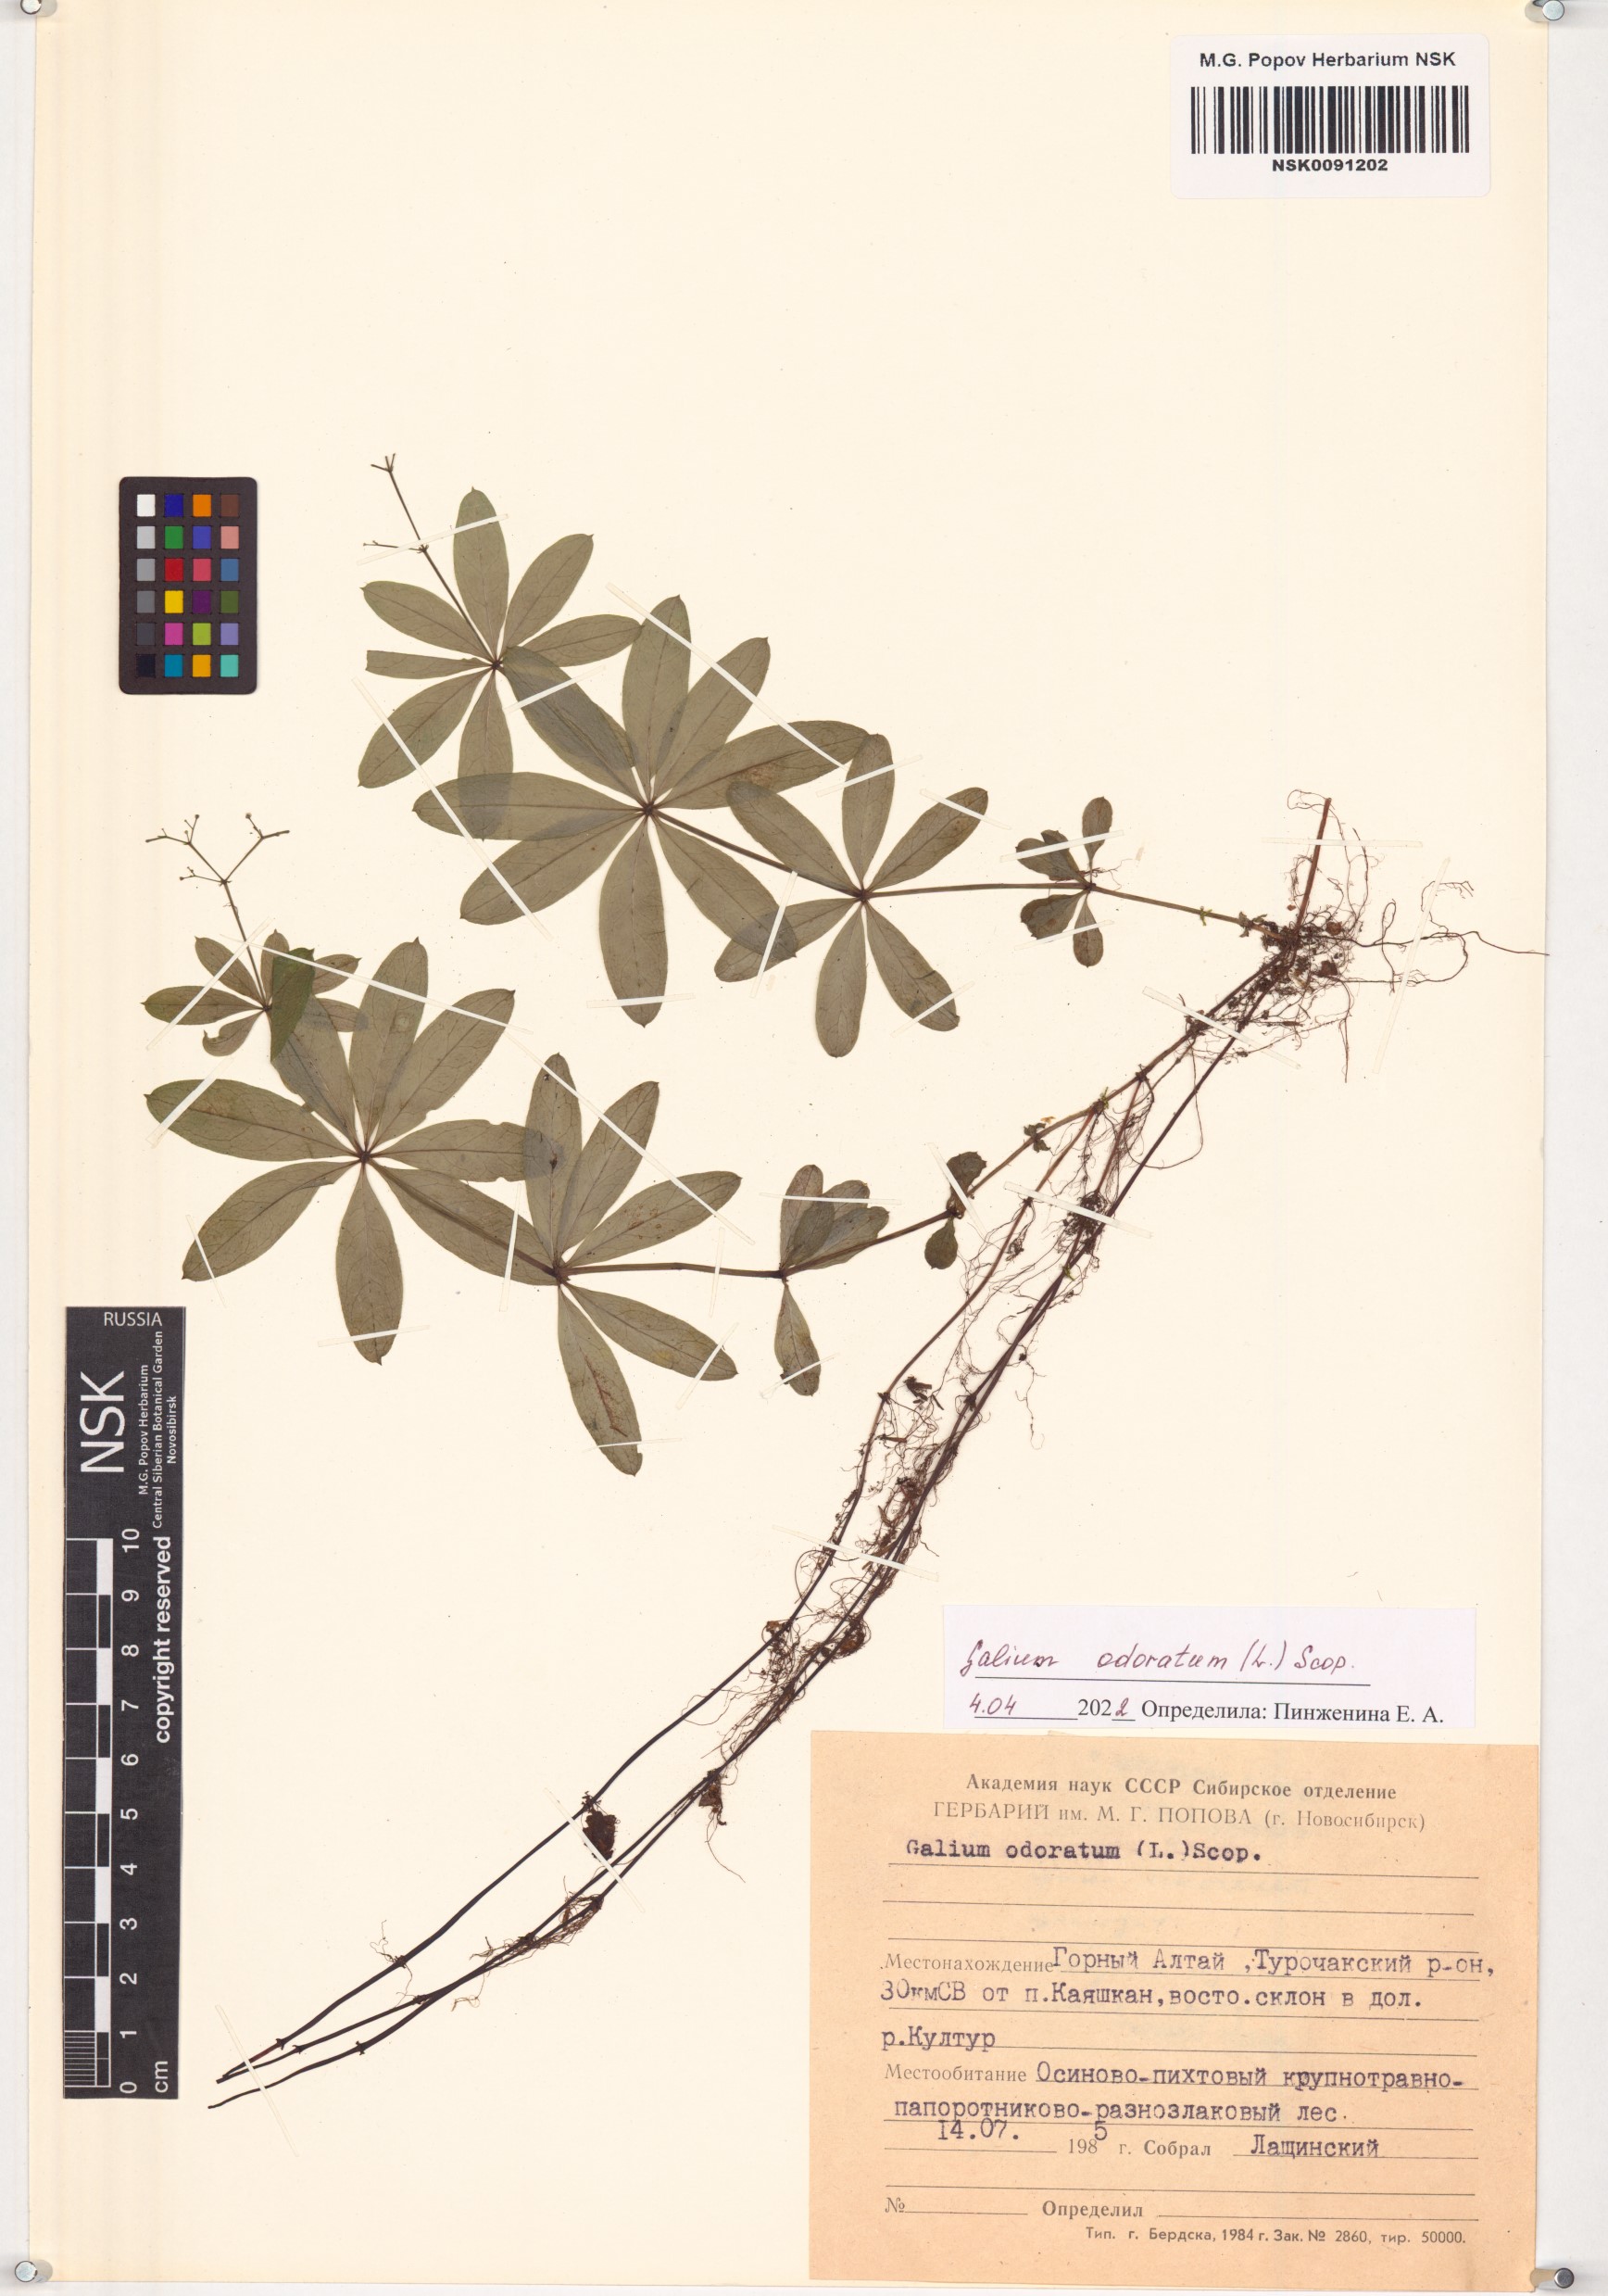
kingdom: Plantae
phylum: Tracheophyta
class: Magnoliopsida
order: Gentianales
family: Rubiaceae
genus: Galium
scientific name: Galium odoratum
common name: Sweet woodruff
